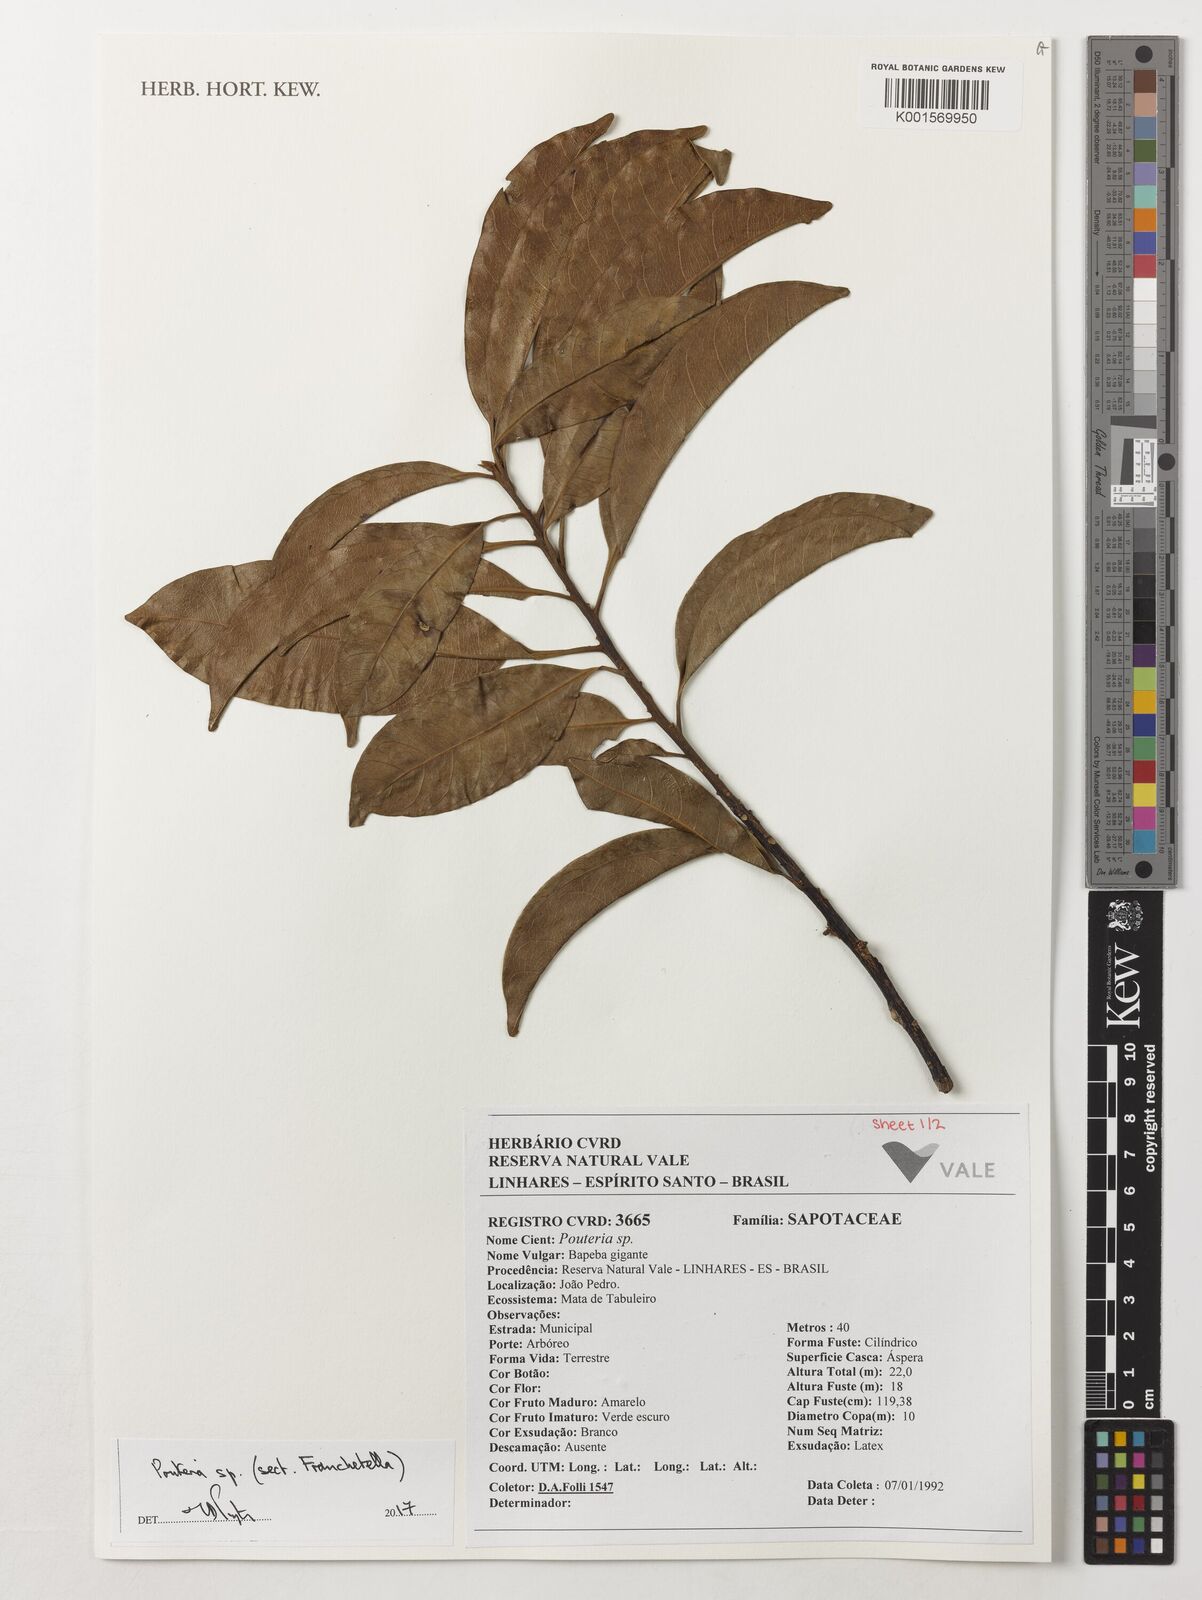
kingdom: Plantae
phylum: Tracheophyta
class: Magnoliopsida
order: Ericales
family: Sapotaceae
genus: Pouteria
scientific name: Pouteria
